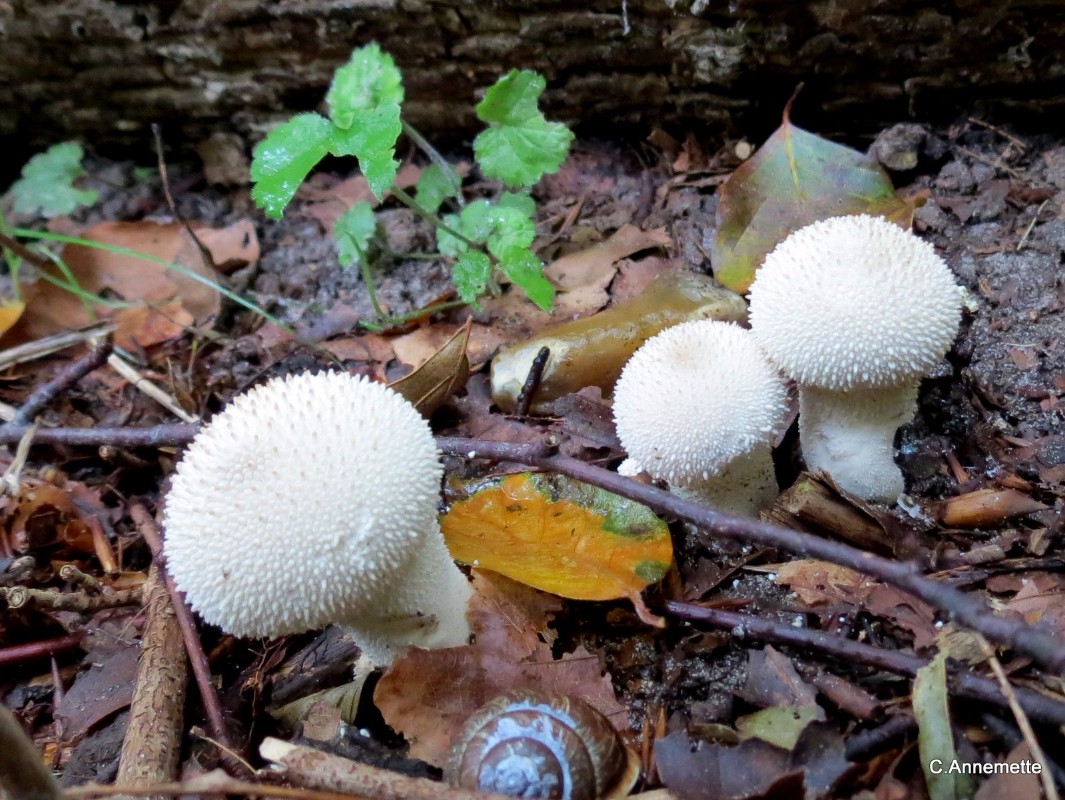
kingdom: Fungi
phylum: Basidiomycota
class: Agaricomycetes
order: Agaricales
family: Lycoperdaceae
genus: Lycoperdon
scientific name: Lycoperdon perlatum
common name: krystal-støvbold
